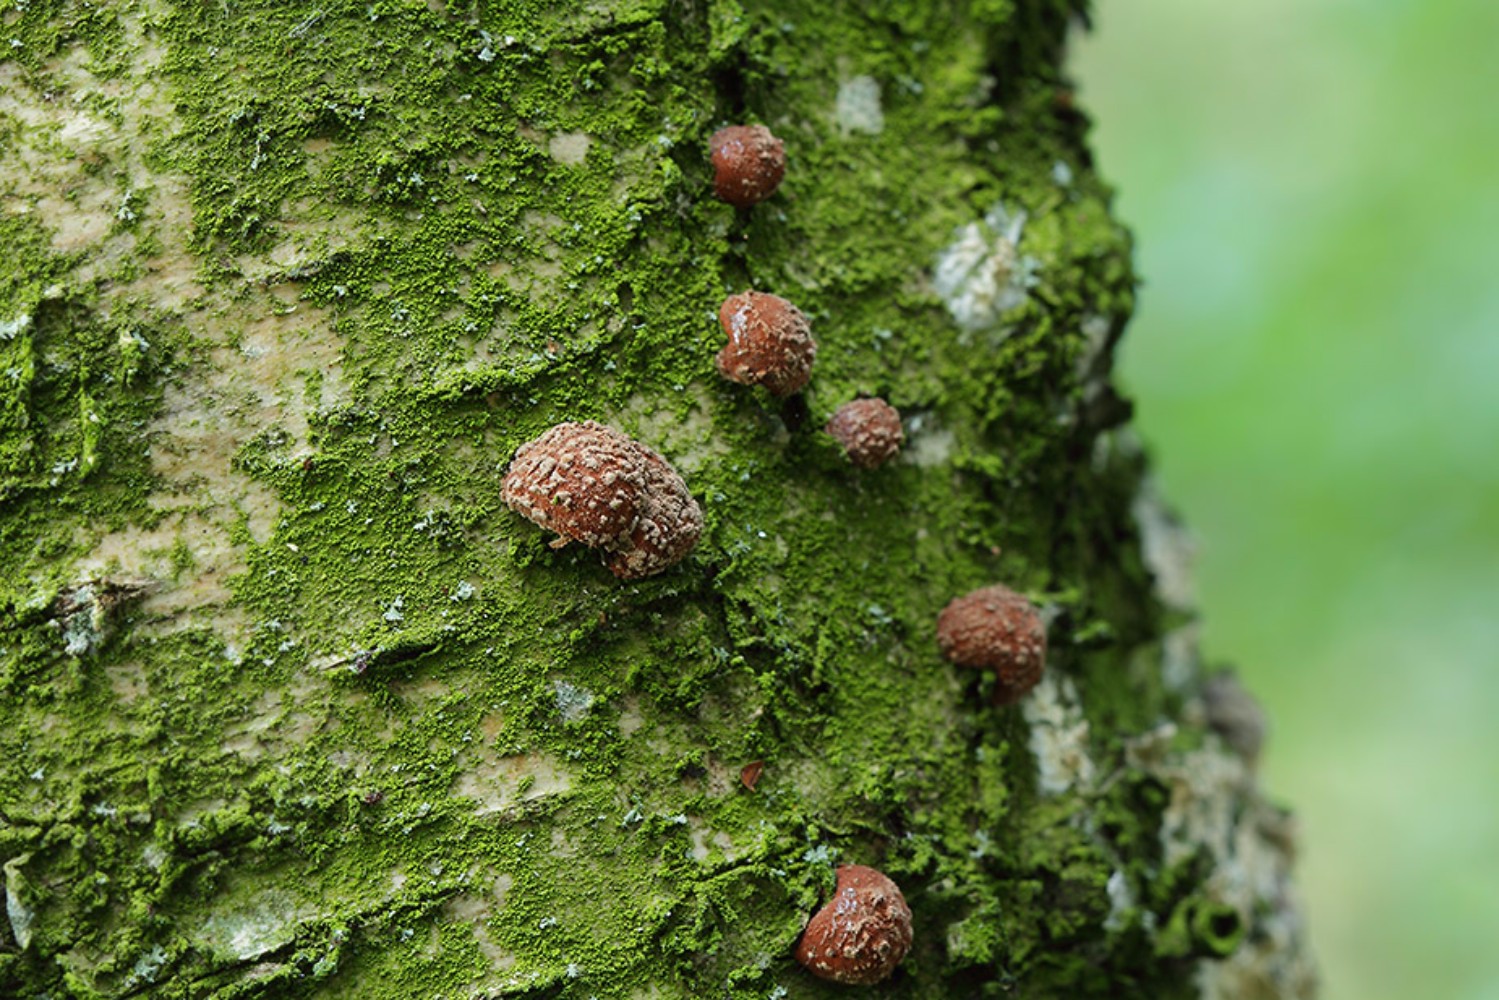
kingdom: Fungi
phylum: Ascomycota
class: Sordariomycetes
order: Xylariales
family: Hypoxylaceae
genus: Hypoxylon
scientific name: Hypoxylon howeanum
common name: halvkugleformet kulbær
